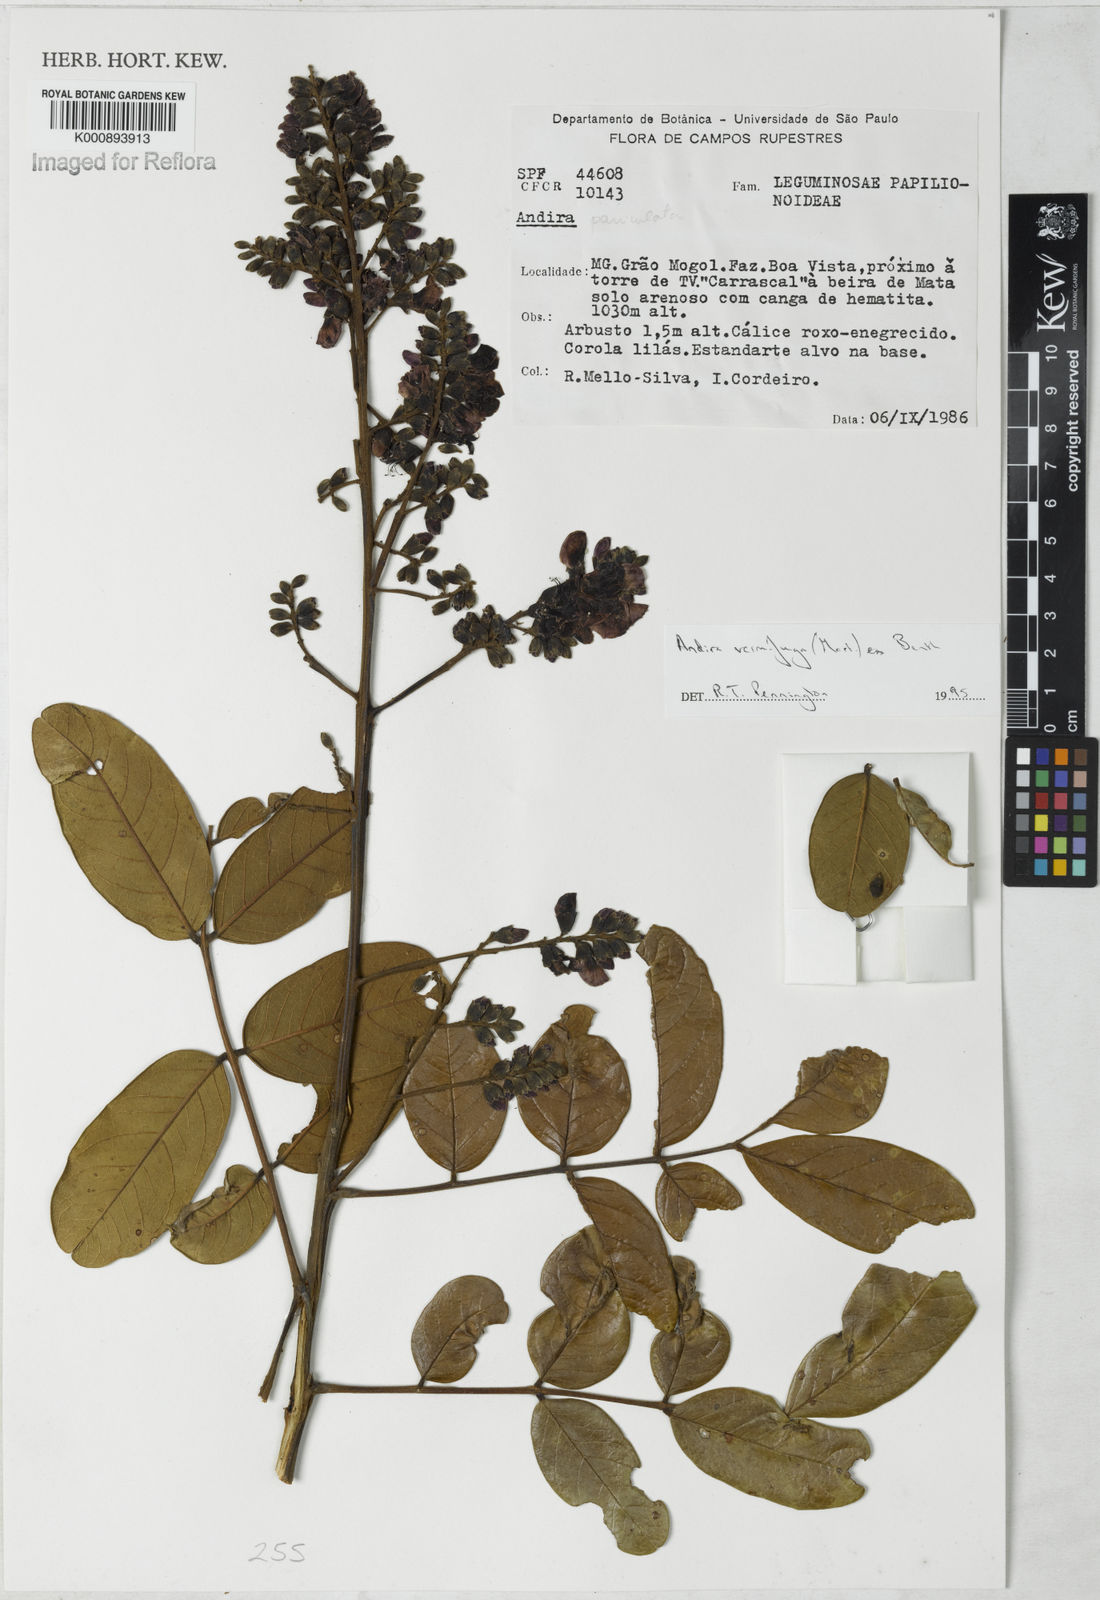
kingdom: Plantae
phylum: Tracheophyta
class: Magnoliopsida
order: Fabales
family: Fabaceae
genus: Andira
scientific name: Andira vermifuga
